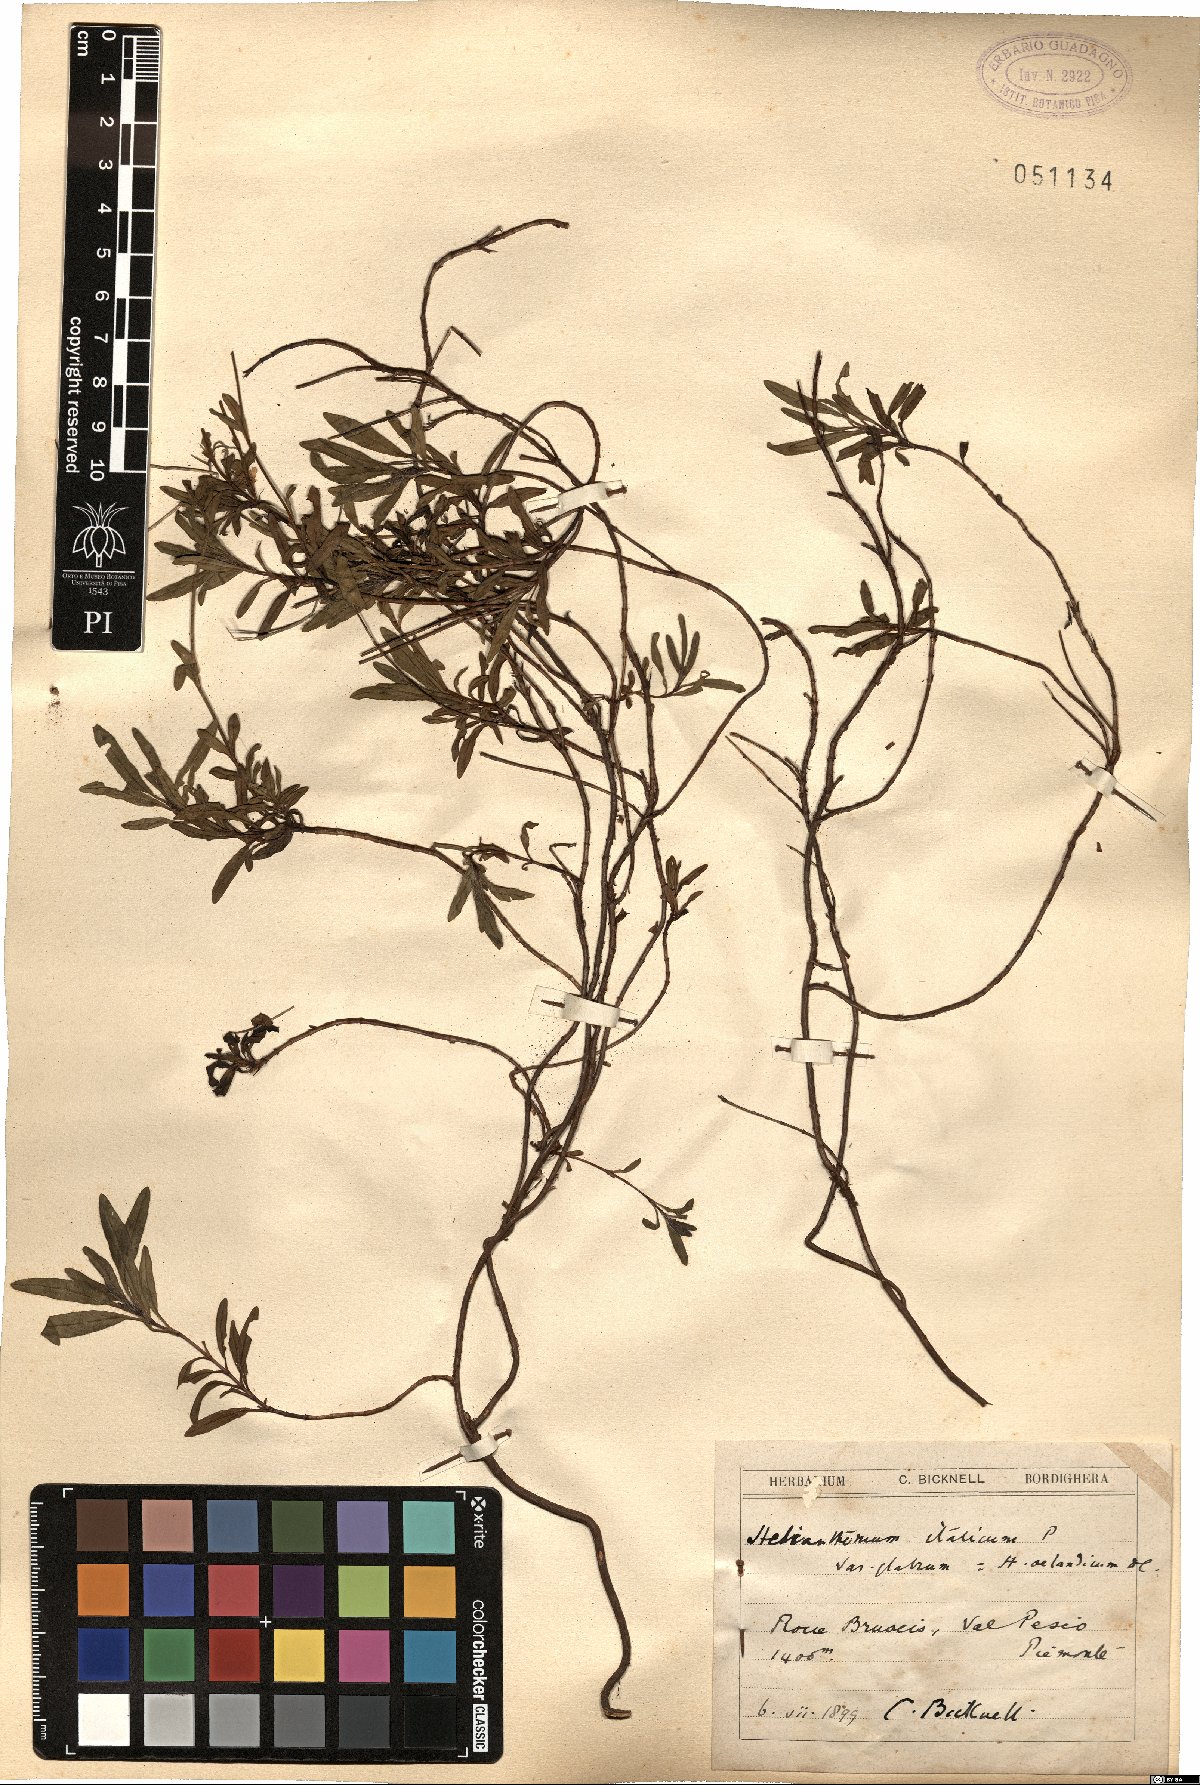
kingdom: Plantae
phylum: Tracheophyta
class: Magnoliopsida
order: Malvales
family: Cistaceae
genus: Helianthemum
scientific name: Helianthemum oelandicum
